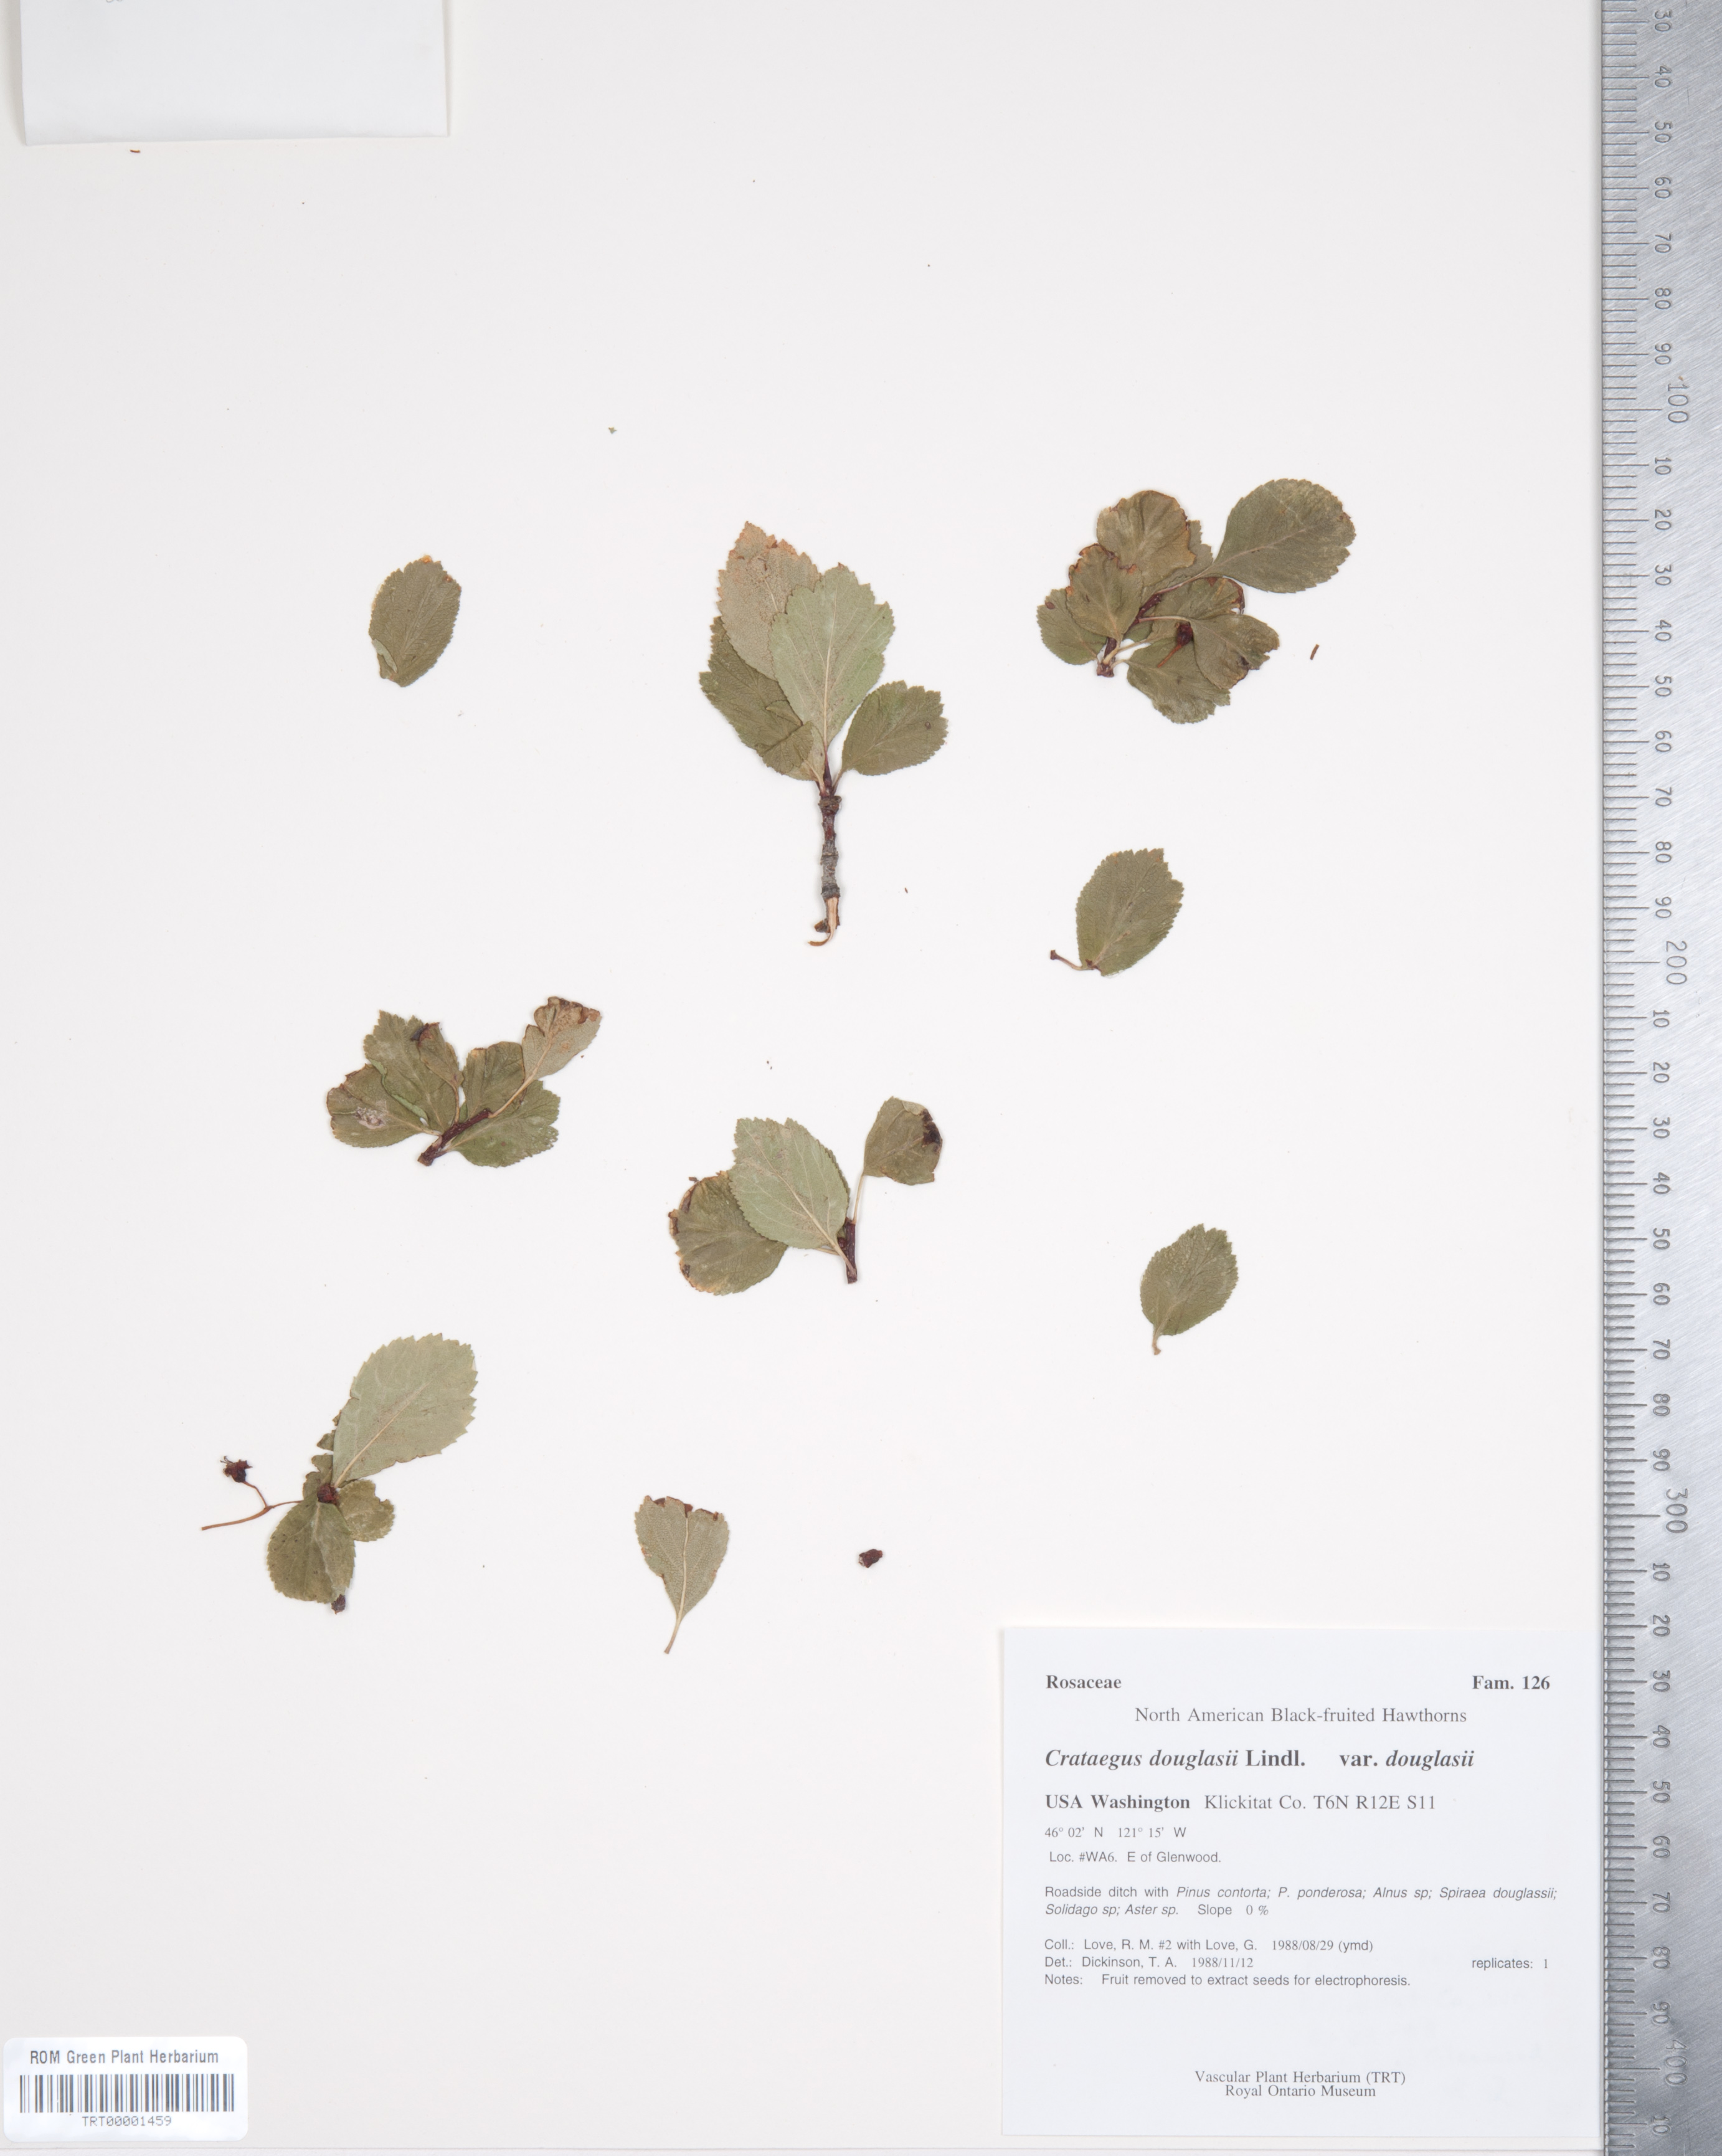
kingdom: Plantae
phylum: Tracheophyta
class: Magnoliopsida
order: Rosales
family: Rosaceae
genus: Crataegus
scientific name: Crataegus douglasii
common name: Black hawthorn
